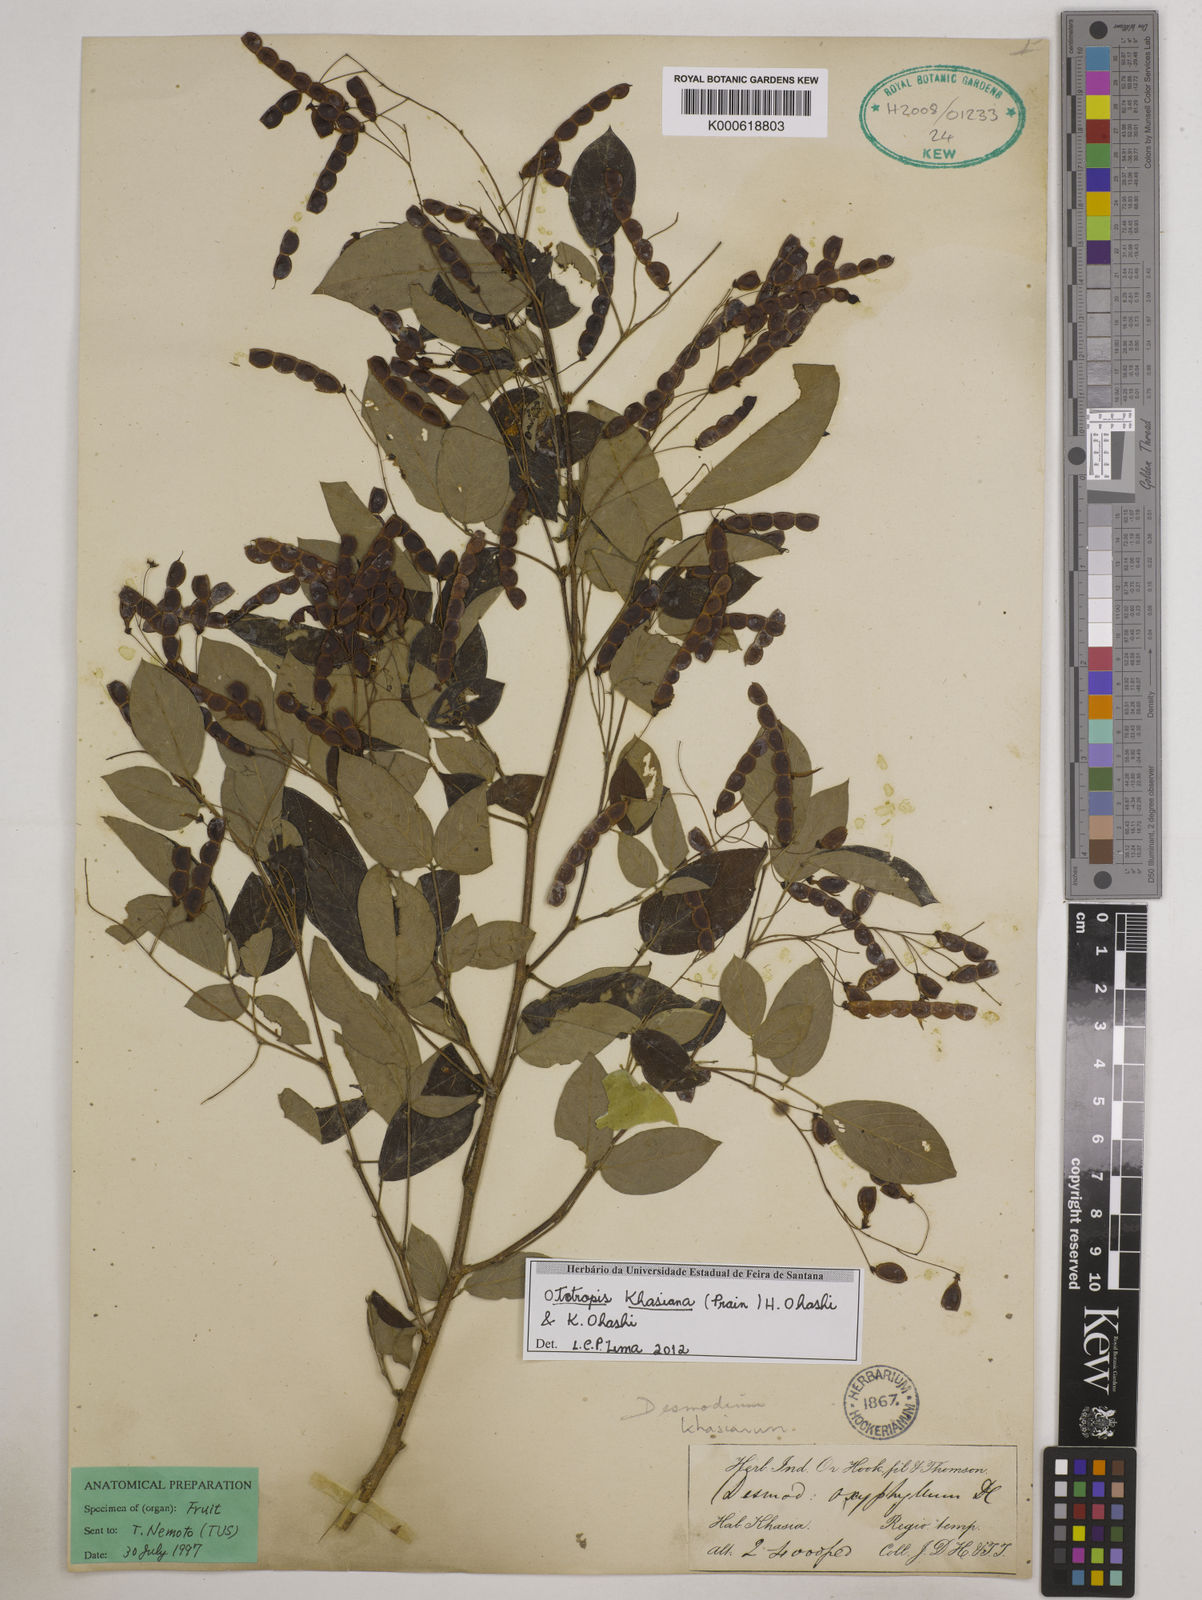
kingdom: Plantae
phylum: Tracheophyta
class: Magnoliopsida
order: Fabales
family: Fabaceae
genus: Ototropis
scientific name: Ototropis khasiana
